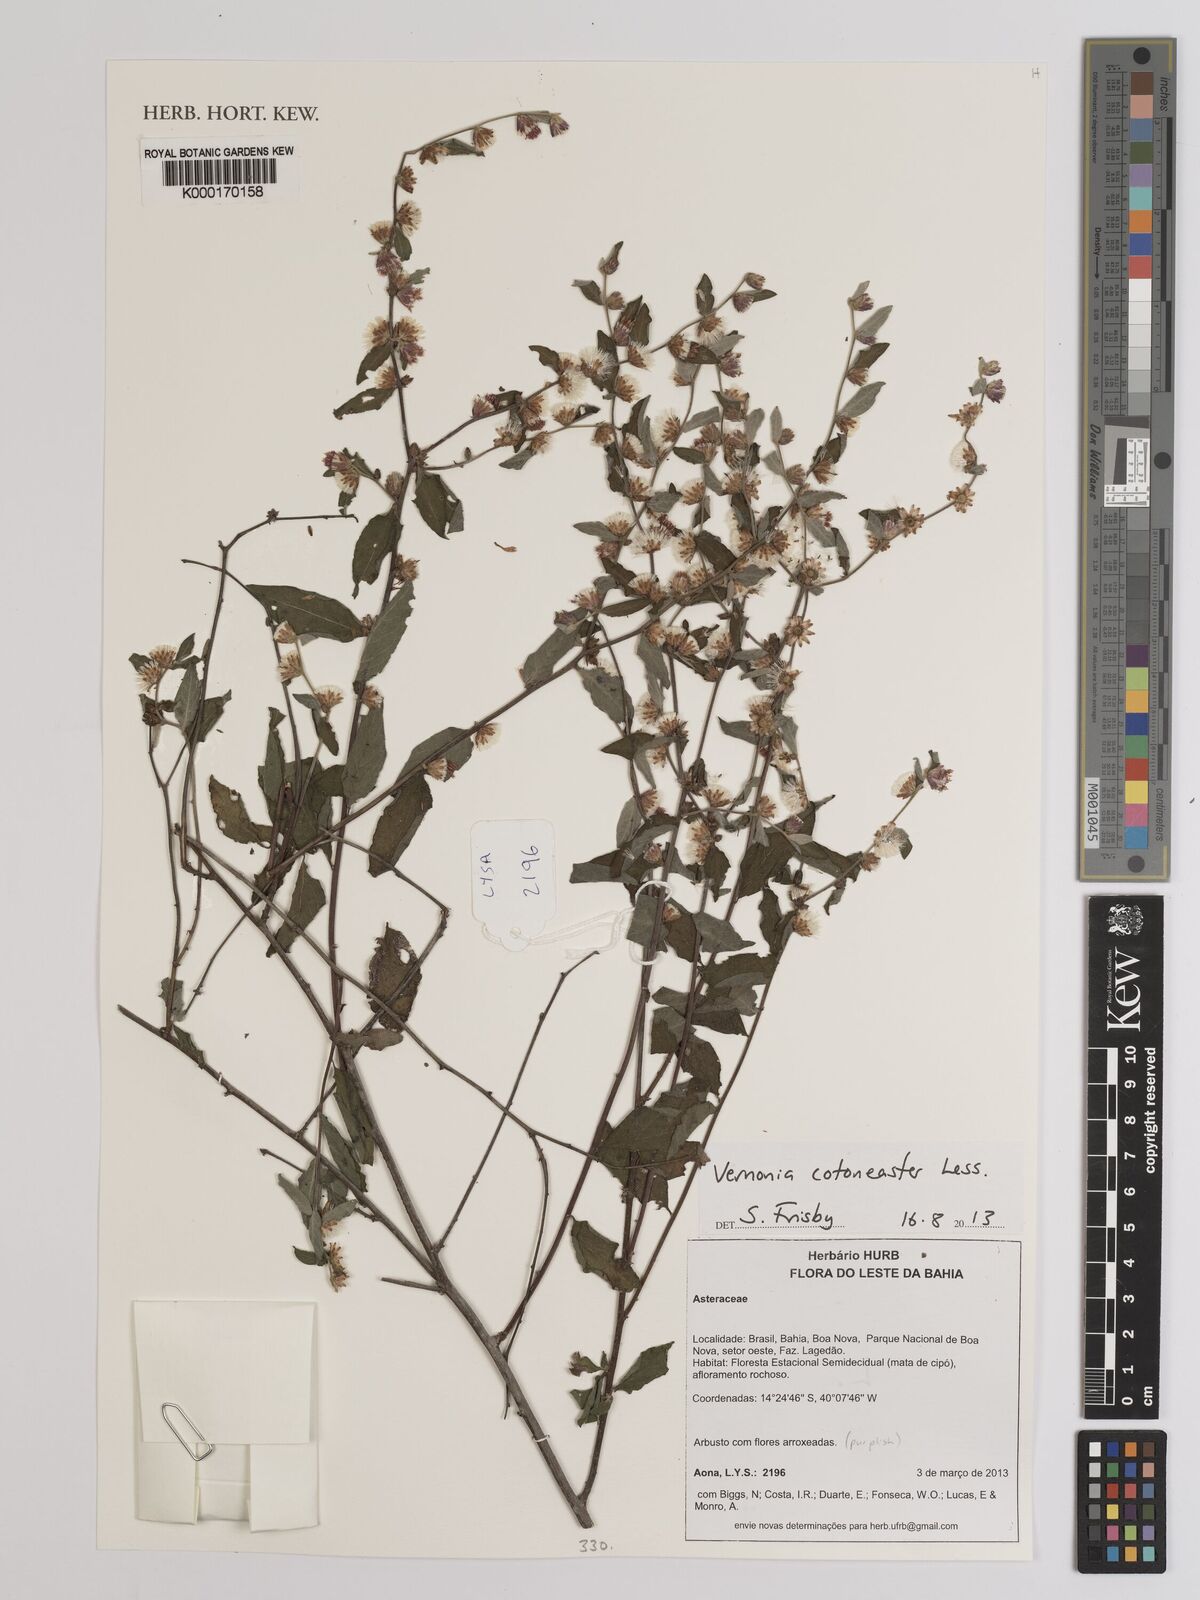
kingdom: Plantae
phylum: Tracheophyta
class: Magnoliopsida
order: Asterales
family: Asteraceae
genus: Lepidaploa
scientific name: Lepidaploa cotoneaster
